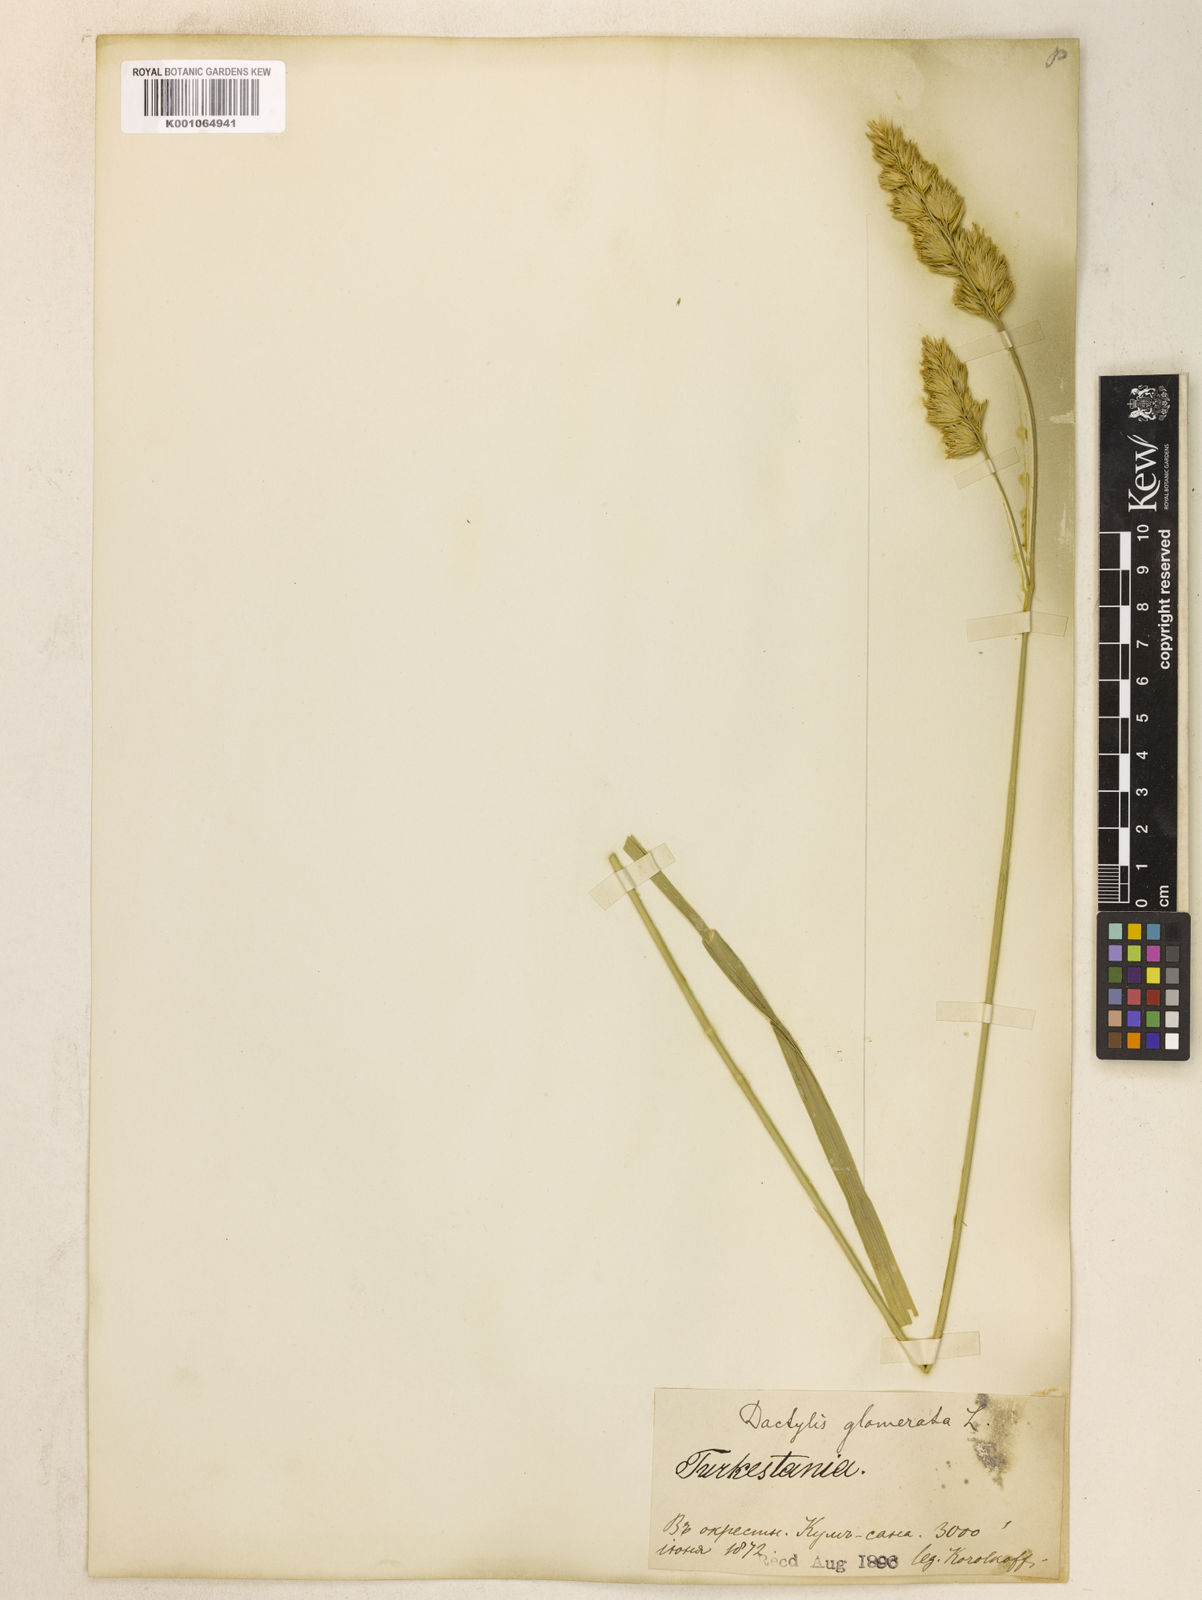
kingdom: Plantae
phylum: Tracheophyta
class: Liliopsida
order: Poales
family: Poaceae
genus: Dactylis
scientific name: Dactylis glomerata
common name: Orchardgrass
